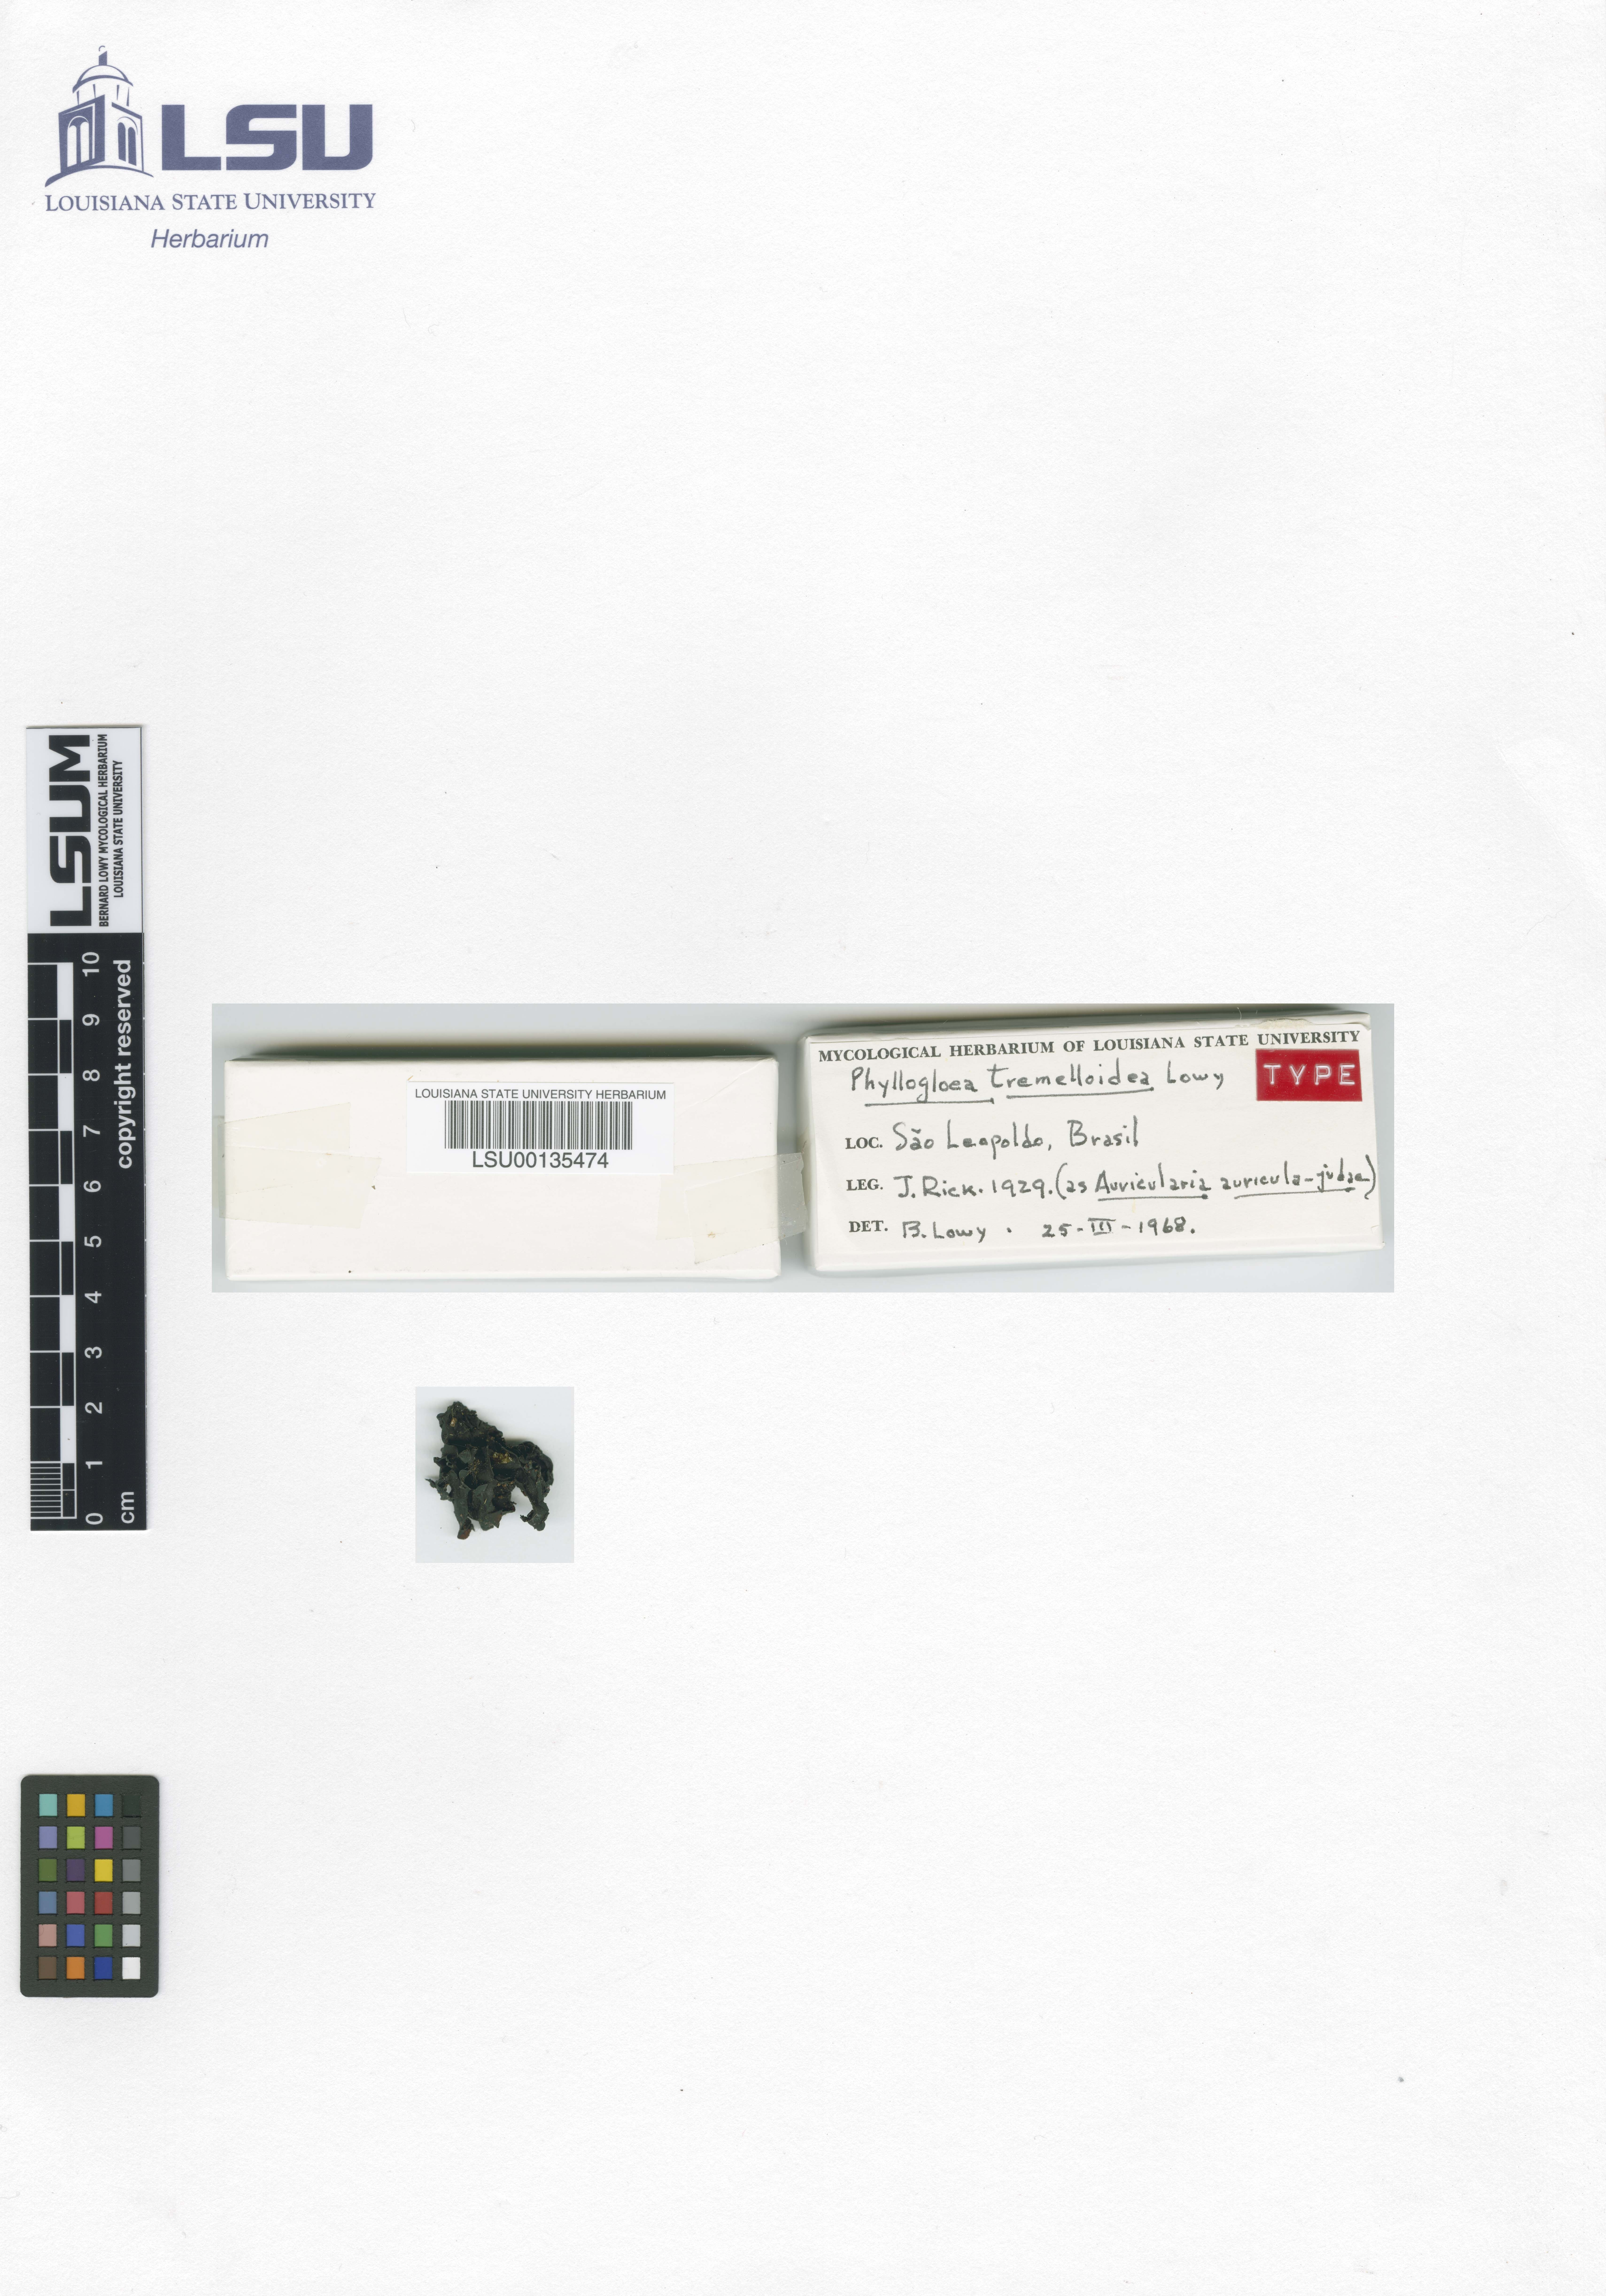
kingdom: Fungi
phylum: Basidiomycota
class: Pucciniomycetes
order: Platygloeales
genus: Phyllogloea
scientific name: Phyllogloea tremelloidea
